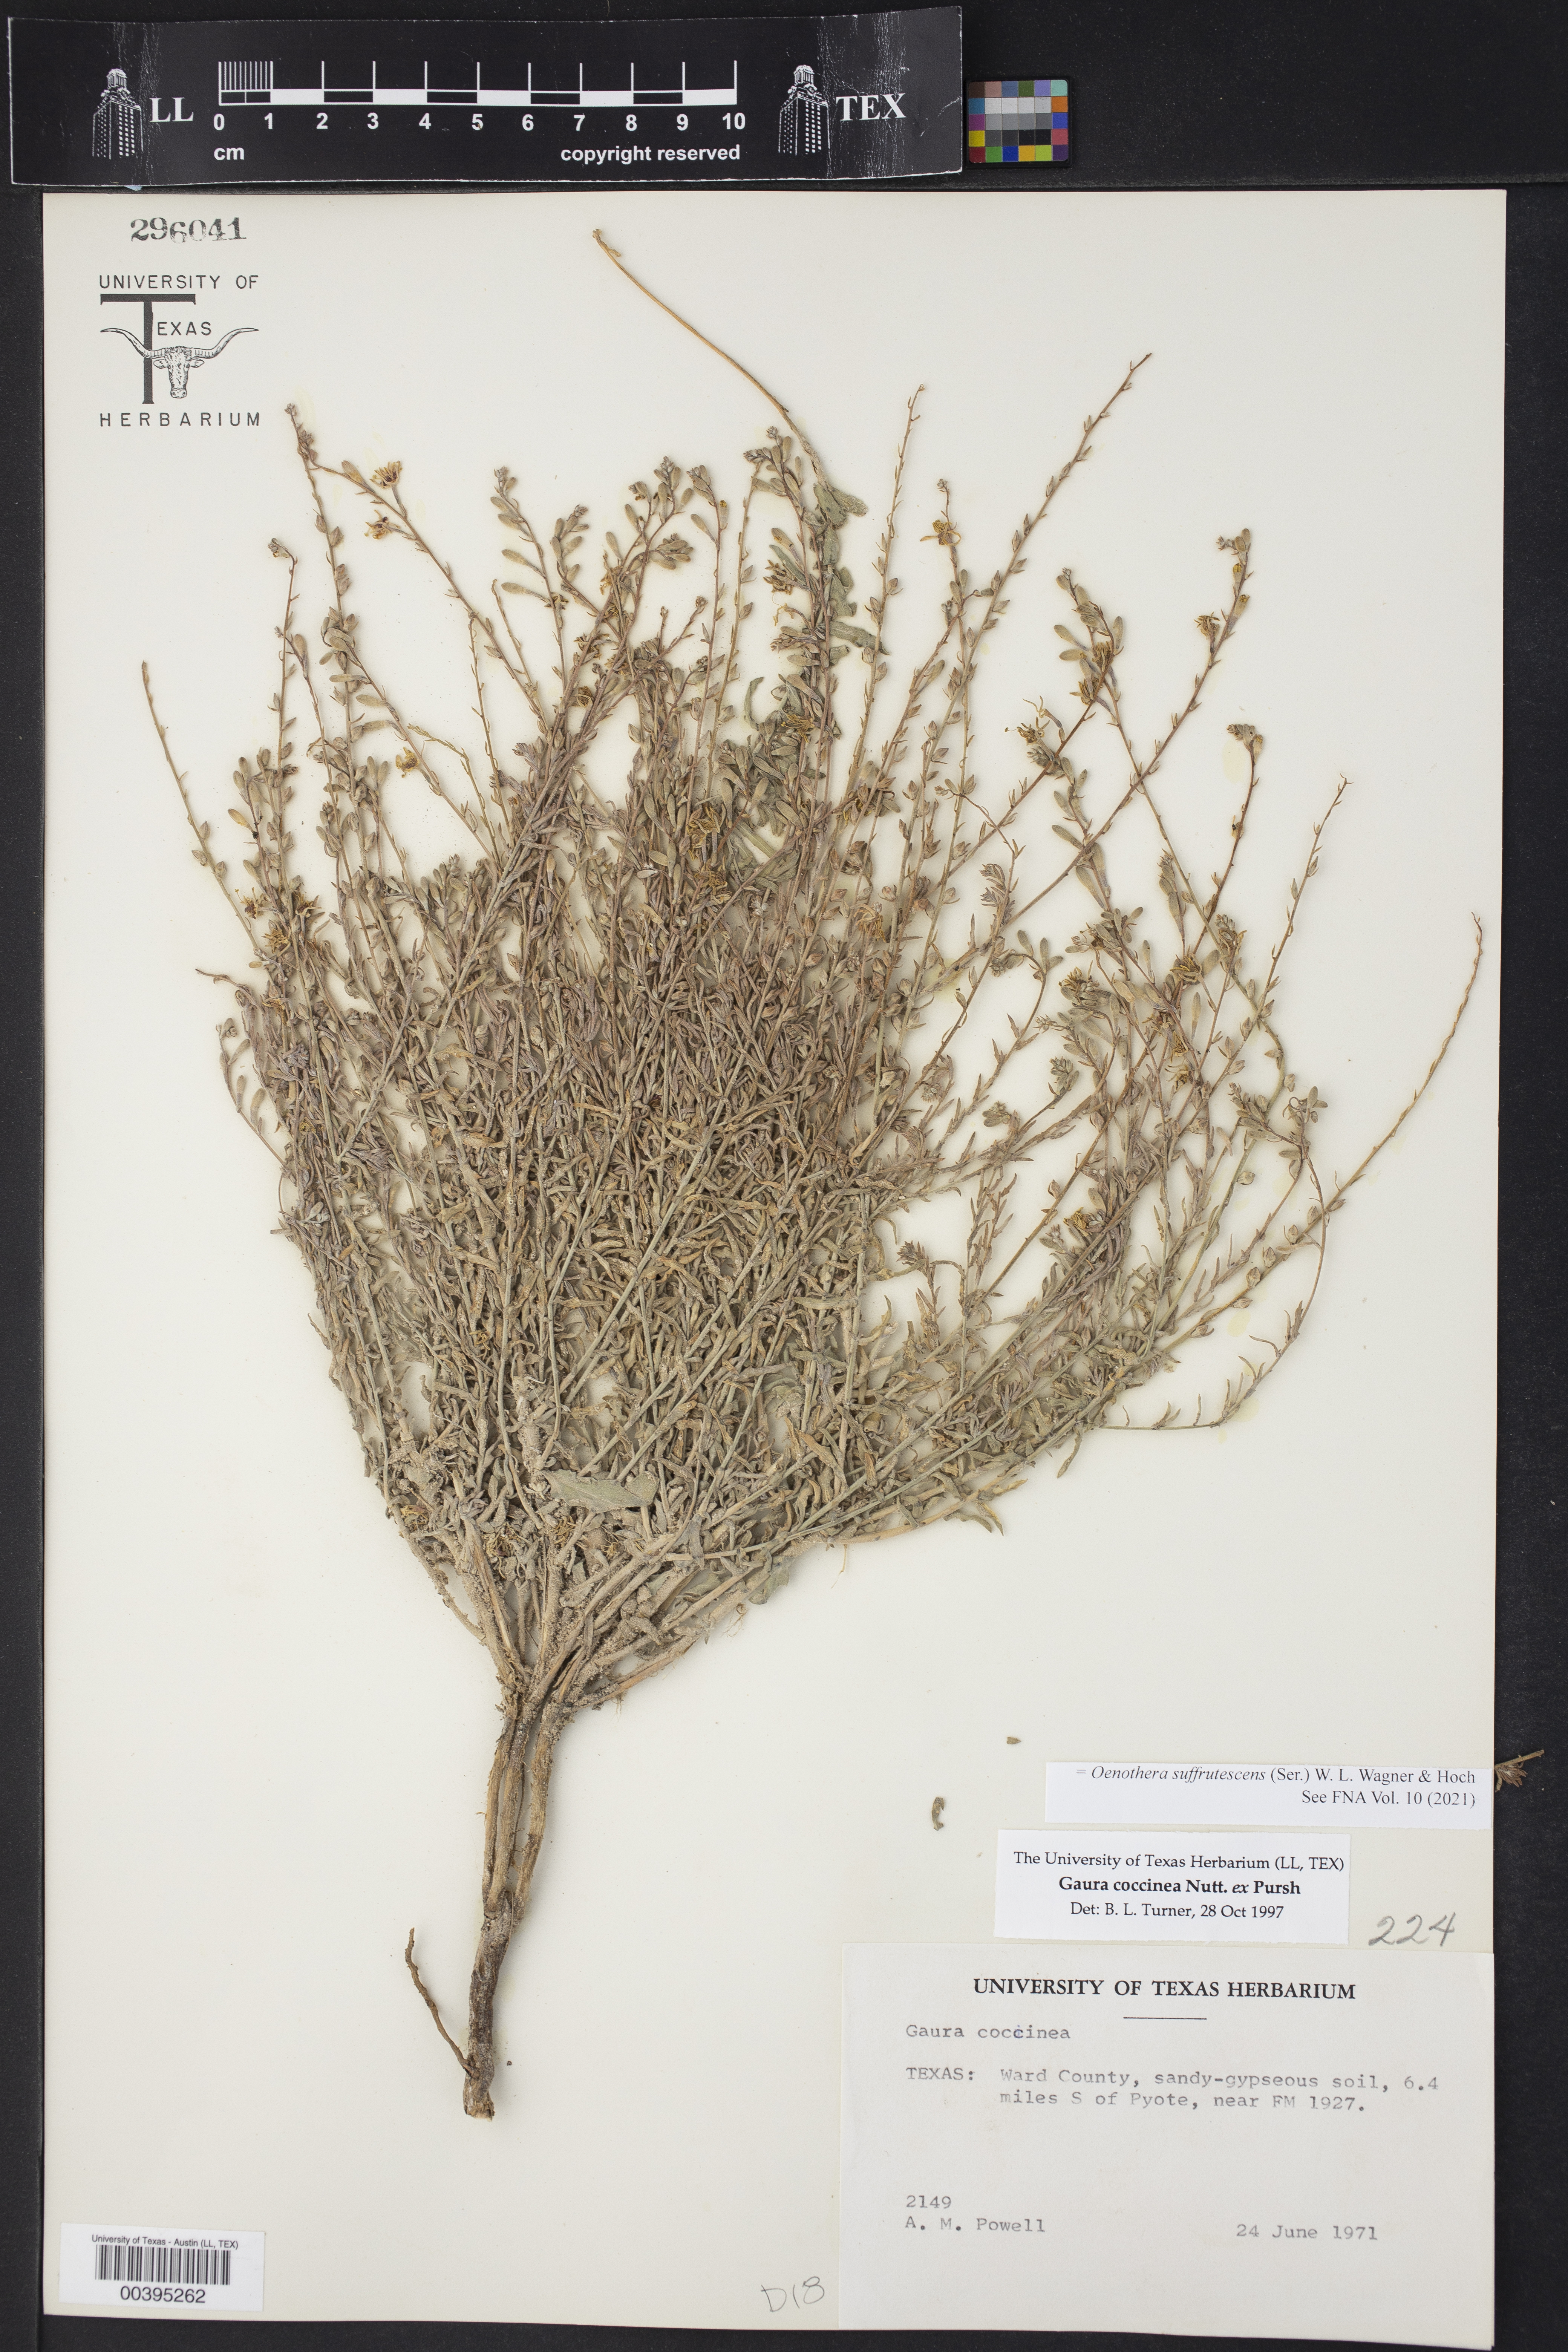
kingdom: Plantae
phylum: Tracheophyta
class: Magnoliopsida
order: Myrtales
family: Onagraceae
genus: Oenothera
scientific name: Oenothera suffrutescens
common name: Scarlet beeblossom
